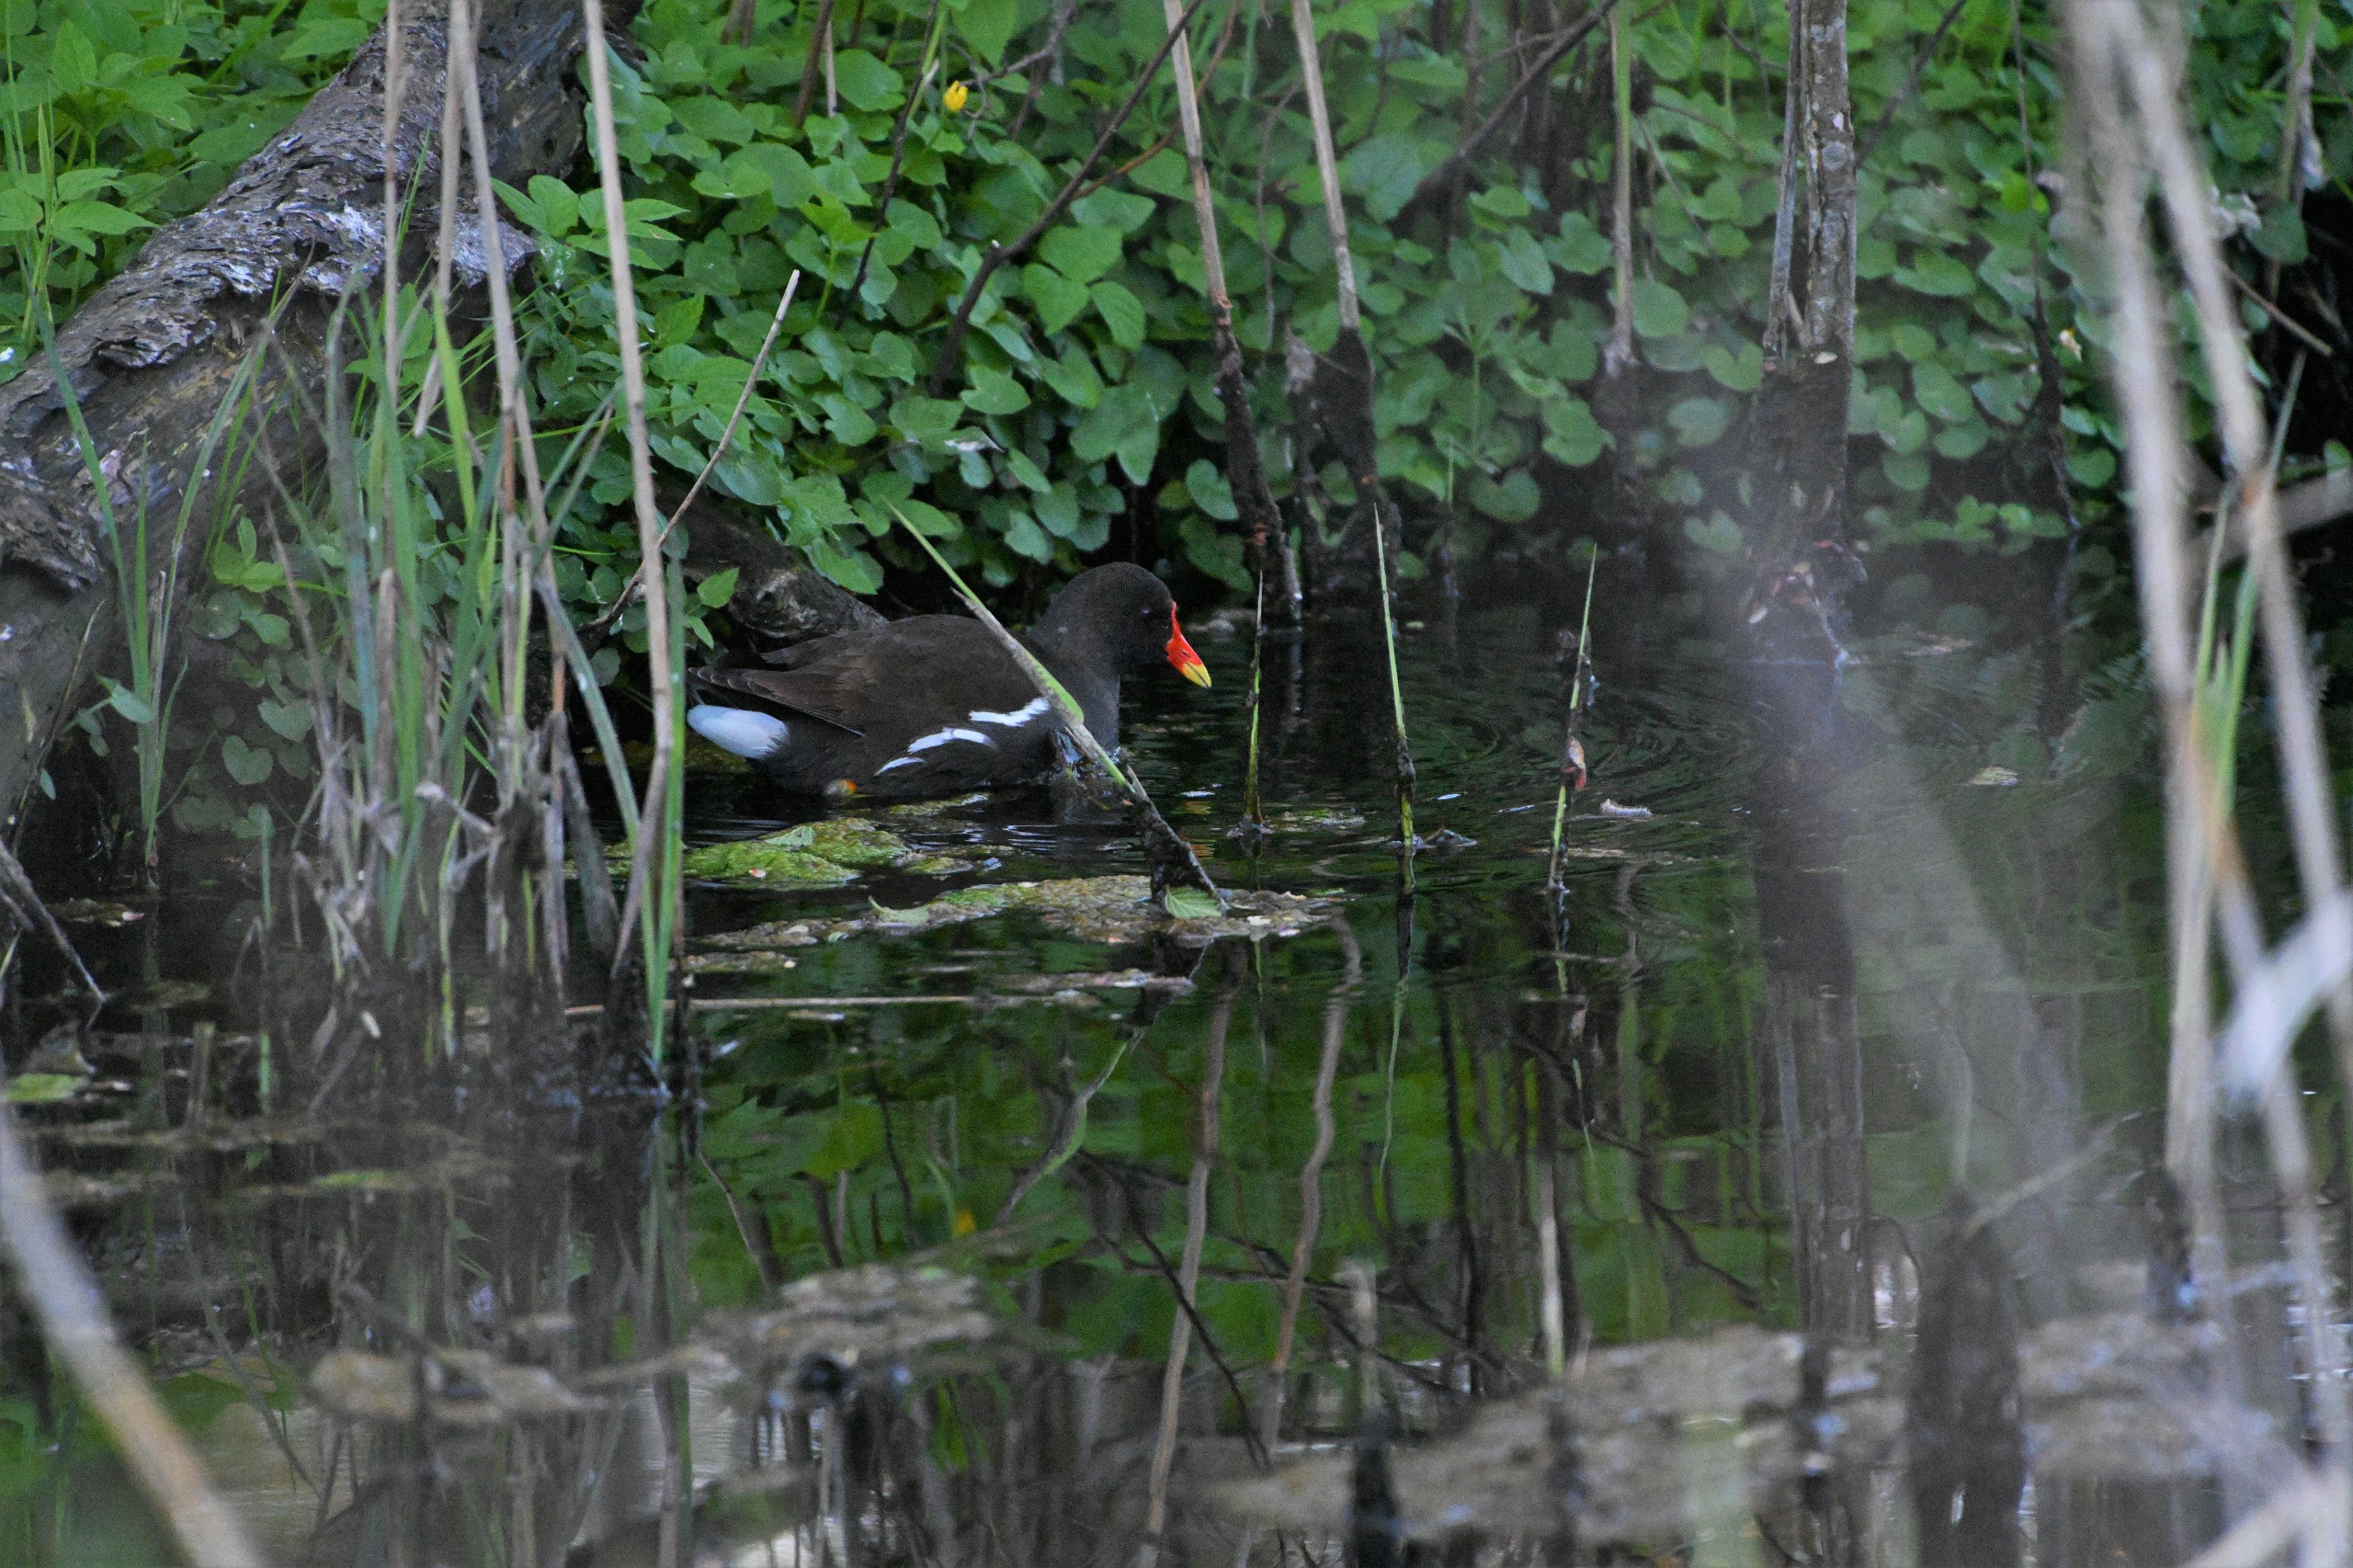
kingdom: Animalia
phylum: Chordata
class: Aves
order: Gruiformes
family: Rallidae
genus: Gallinula
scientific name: Gallinula chloropus
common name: Grønbenet rørhøne
